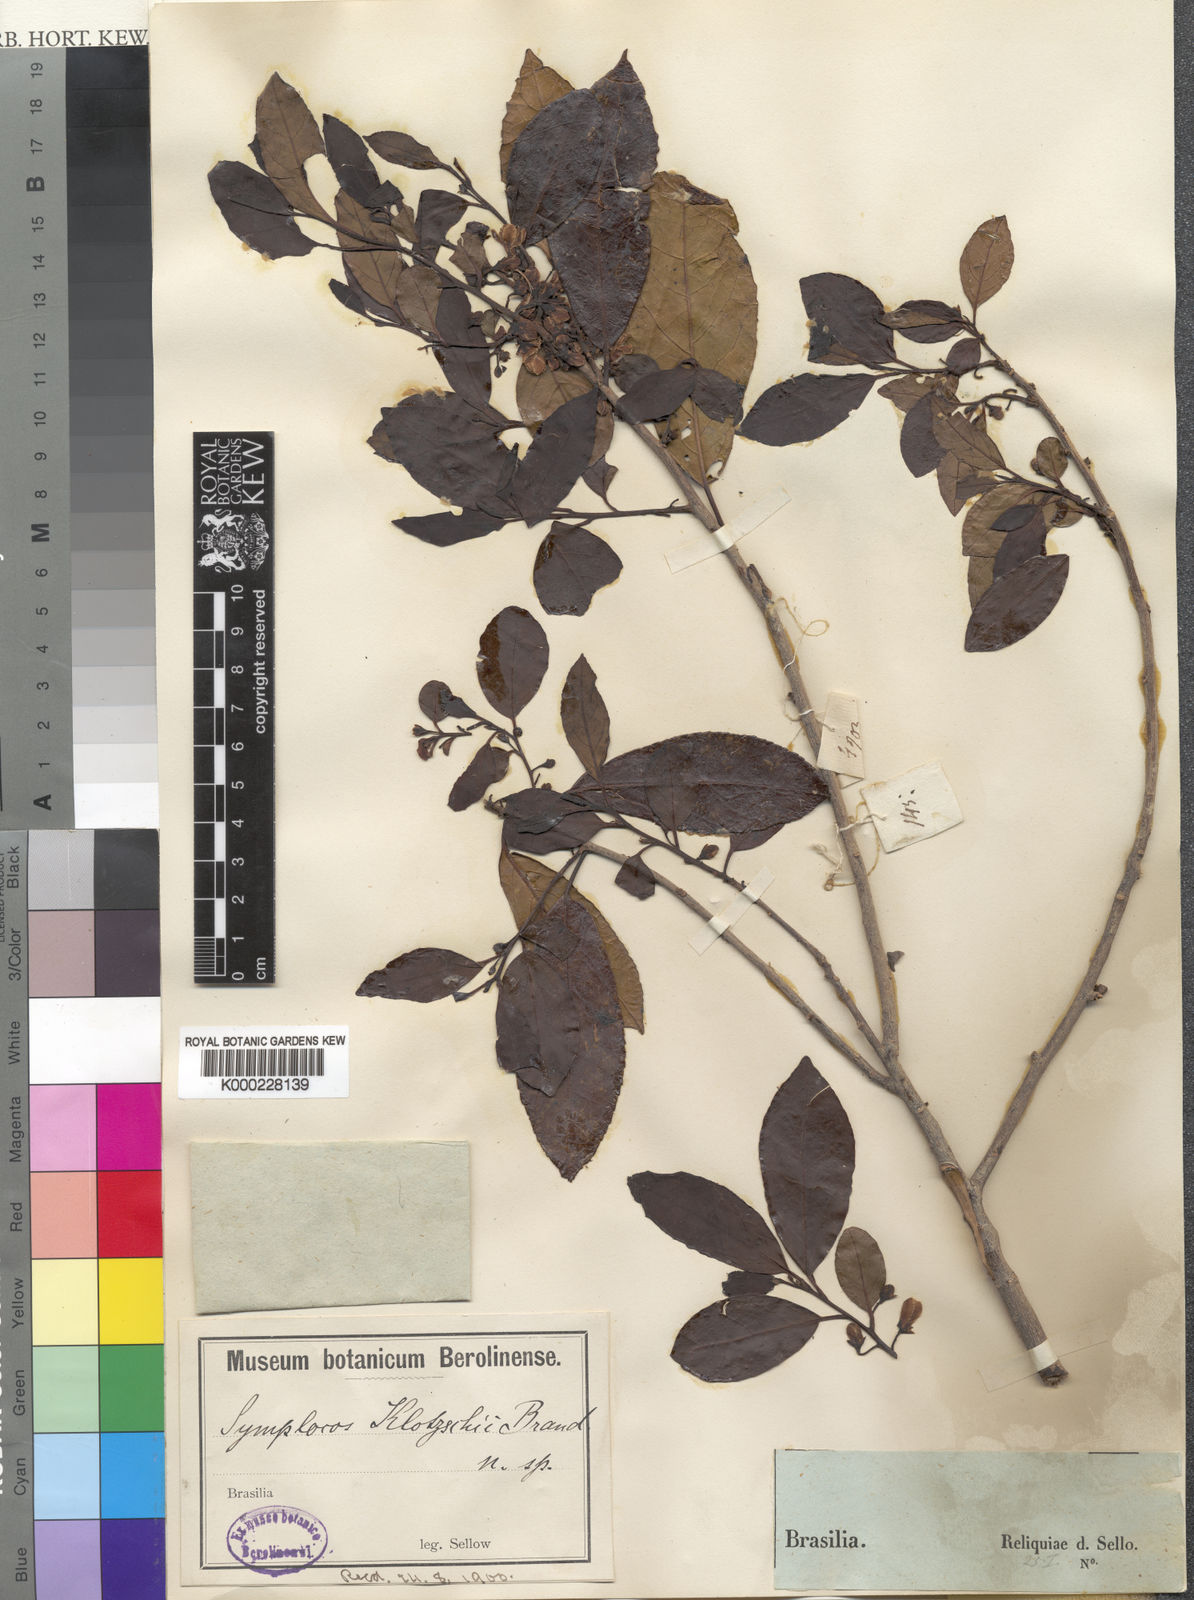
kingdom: Plantae
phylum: Tracheophyta
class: Magnoliopsida
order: Ericales
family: Symplocaceae
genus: Symplocos
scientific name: Symplocos uniflora
